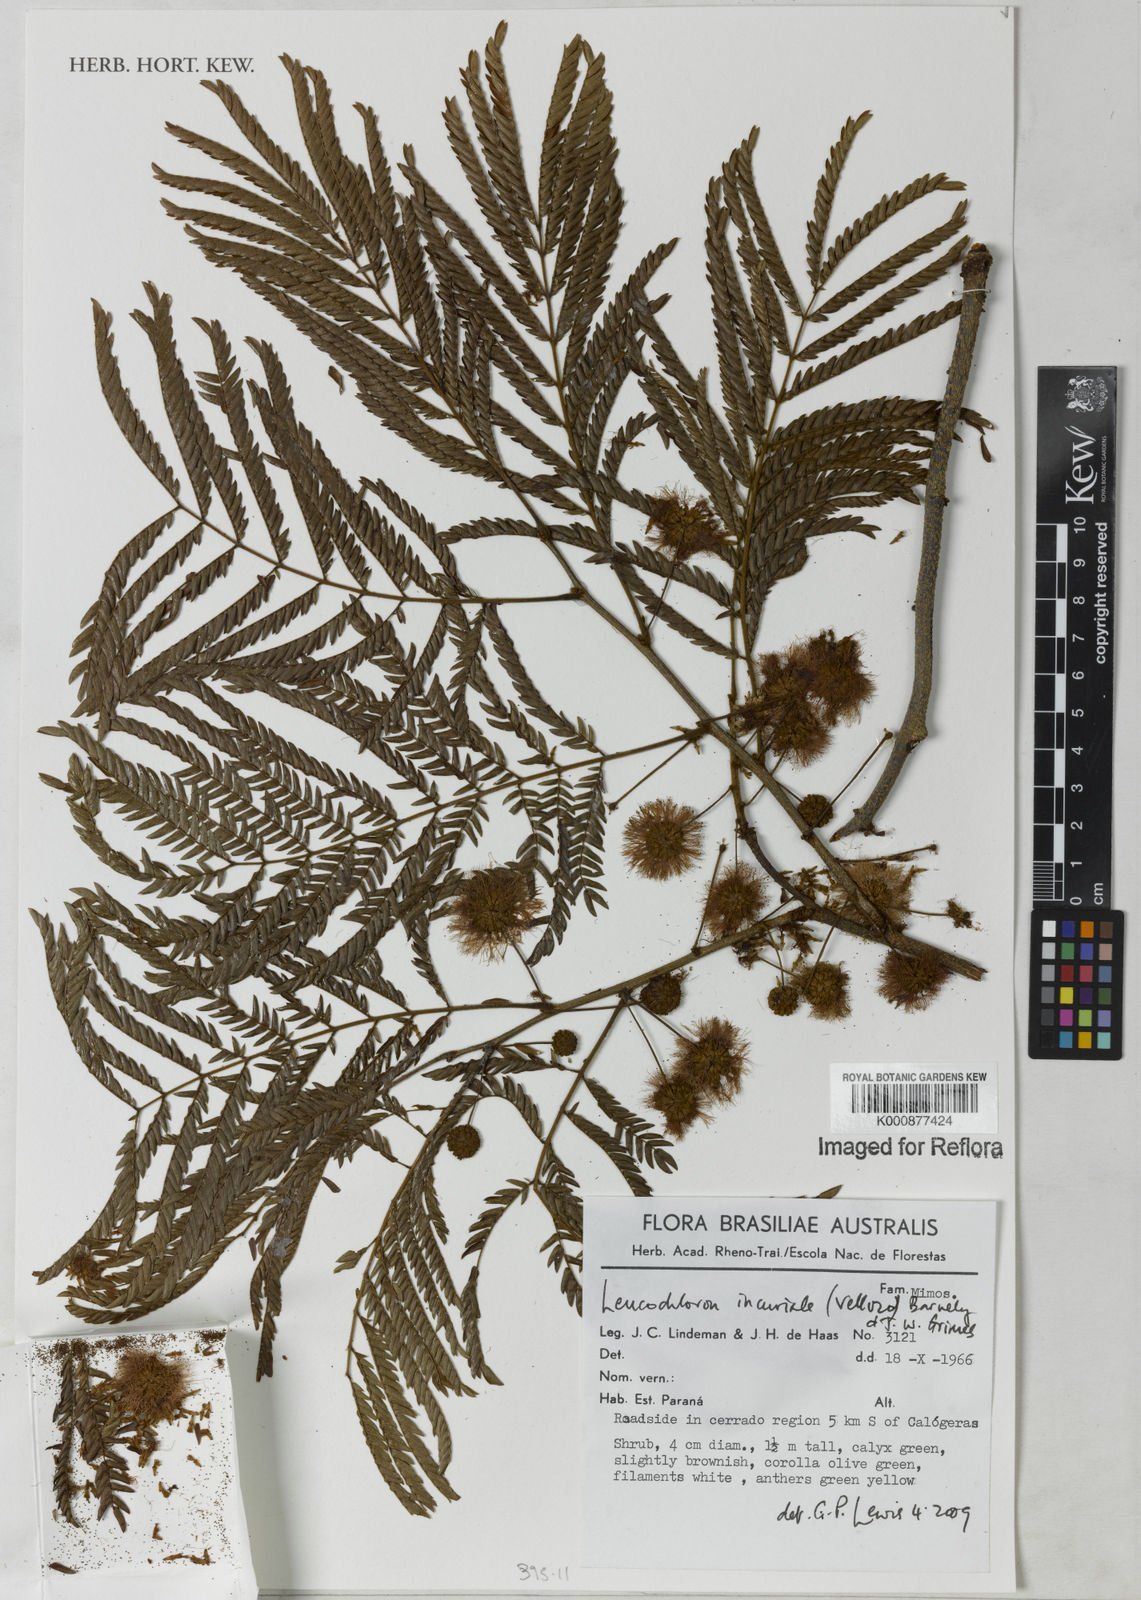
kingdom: Plantae
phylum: Tracheophyta
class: Magnoliopsida
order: Fabales
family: Fabaceae
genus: Leucochloron
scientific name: Leucochloron incuriale
